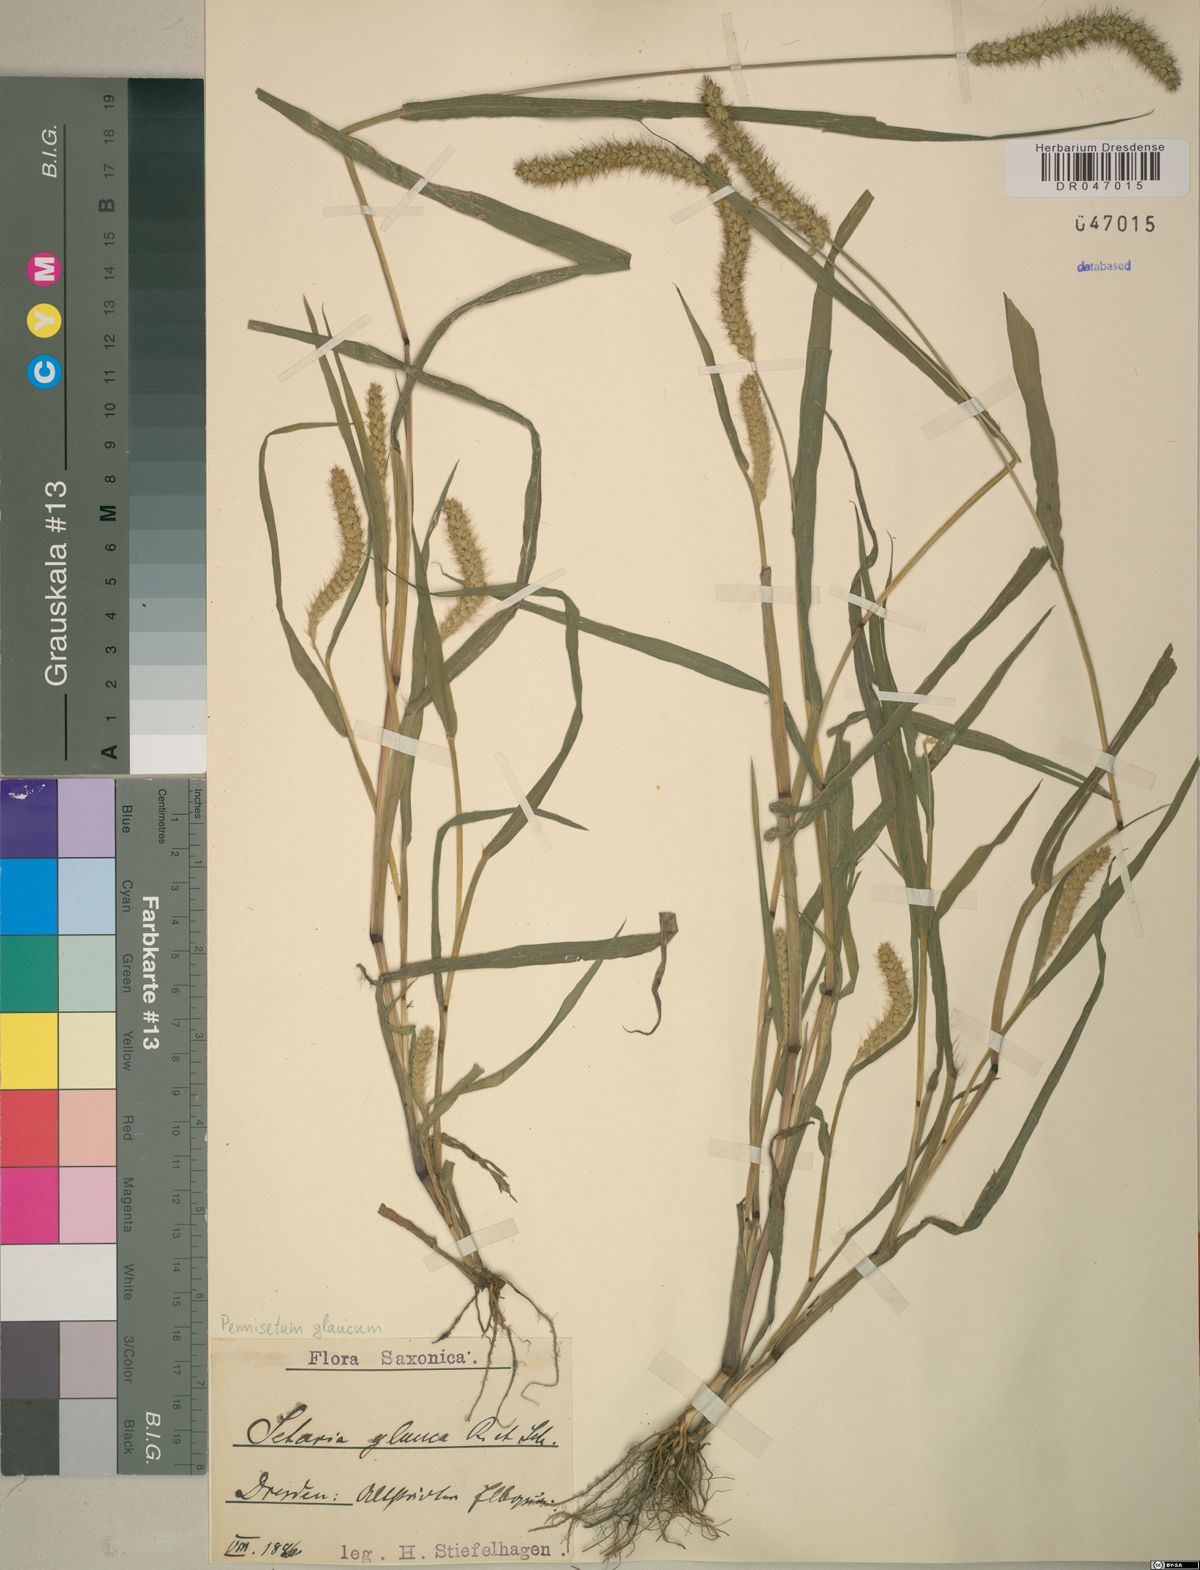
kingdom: Plantae
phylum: Tracheophyta
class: Liliopsida
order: Poales
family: Poaceae
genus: Cenchrus
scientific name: Cenchrus americanus
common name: Pearl millet
